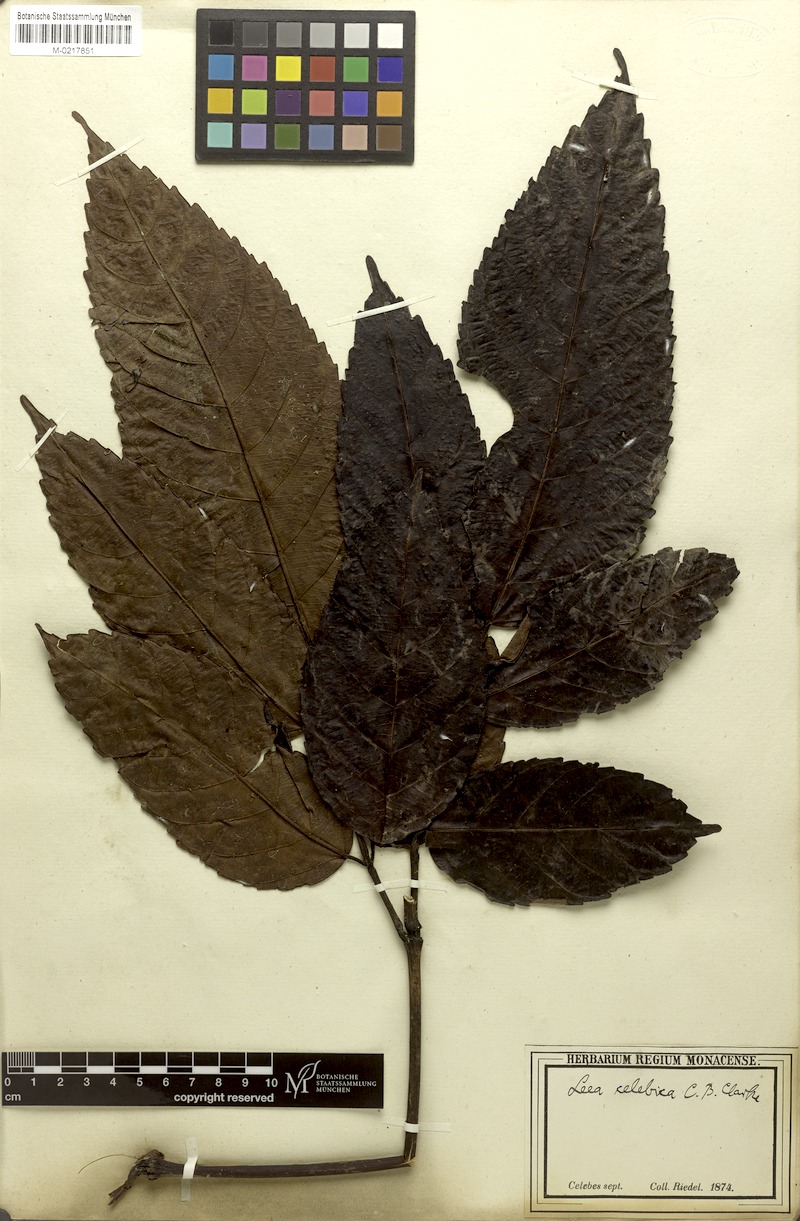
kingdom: Plantae
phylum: Tracheophyta
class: Magnoliopsida
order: Vitales
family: Vitaceae
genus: Leea
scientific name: Leea indica
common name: Bandicoot-berry
